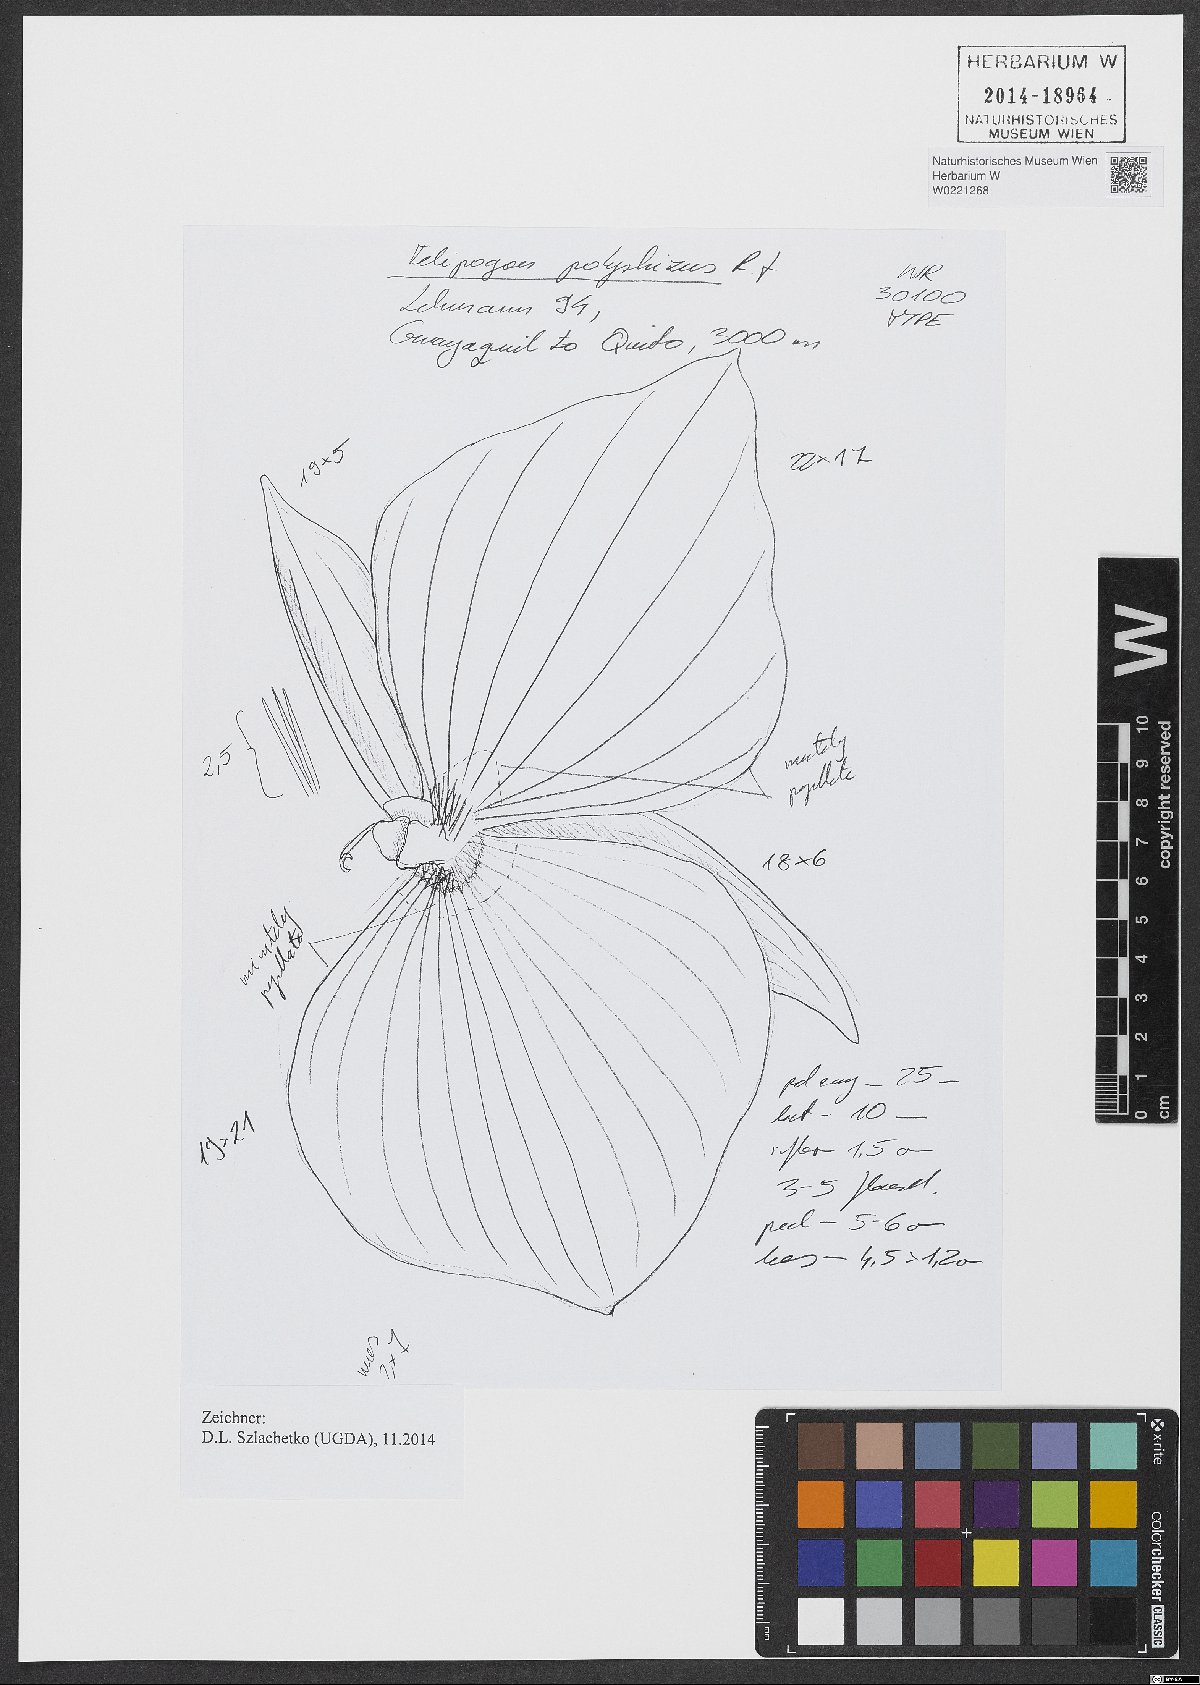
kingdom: Plantae
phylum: Tracheophyta
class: Liliopsida
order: Asparagales
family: Orchidaceae
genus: Telipogon
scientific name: Telipogon polyrrhizus
